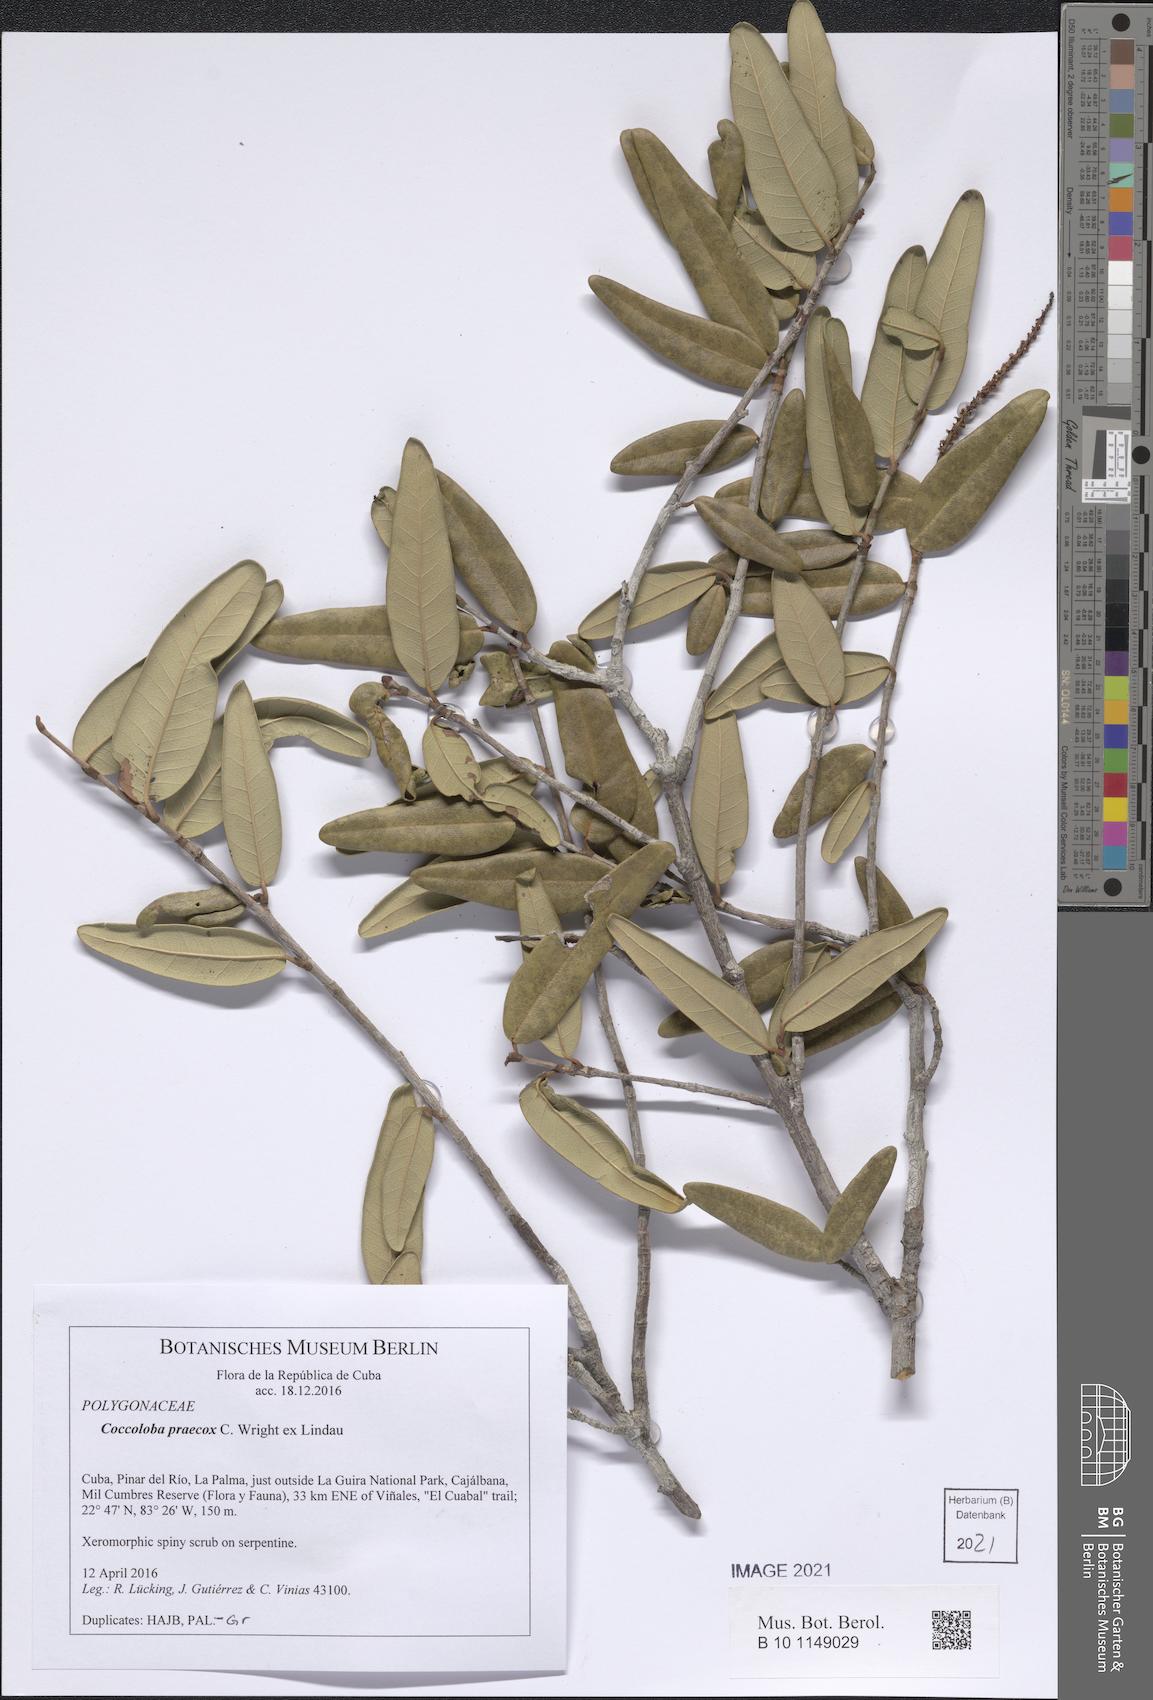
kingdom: Plantae
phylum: Tracheophyta
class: Magnoliopsida
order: Caryophyllales
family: Polygonaceae
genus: Coccoloba
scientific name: Coccoloba pallida
